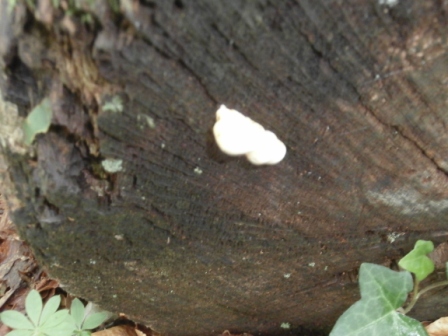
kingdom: Fungi
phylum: Basidiomycota
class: Agaricomycetes
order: Polyporales
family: Fomitopsidaceae
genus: Buglossoporus
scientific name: Buglossoporus quercinus
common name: egetunge
